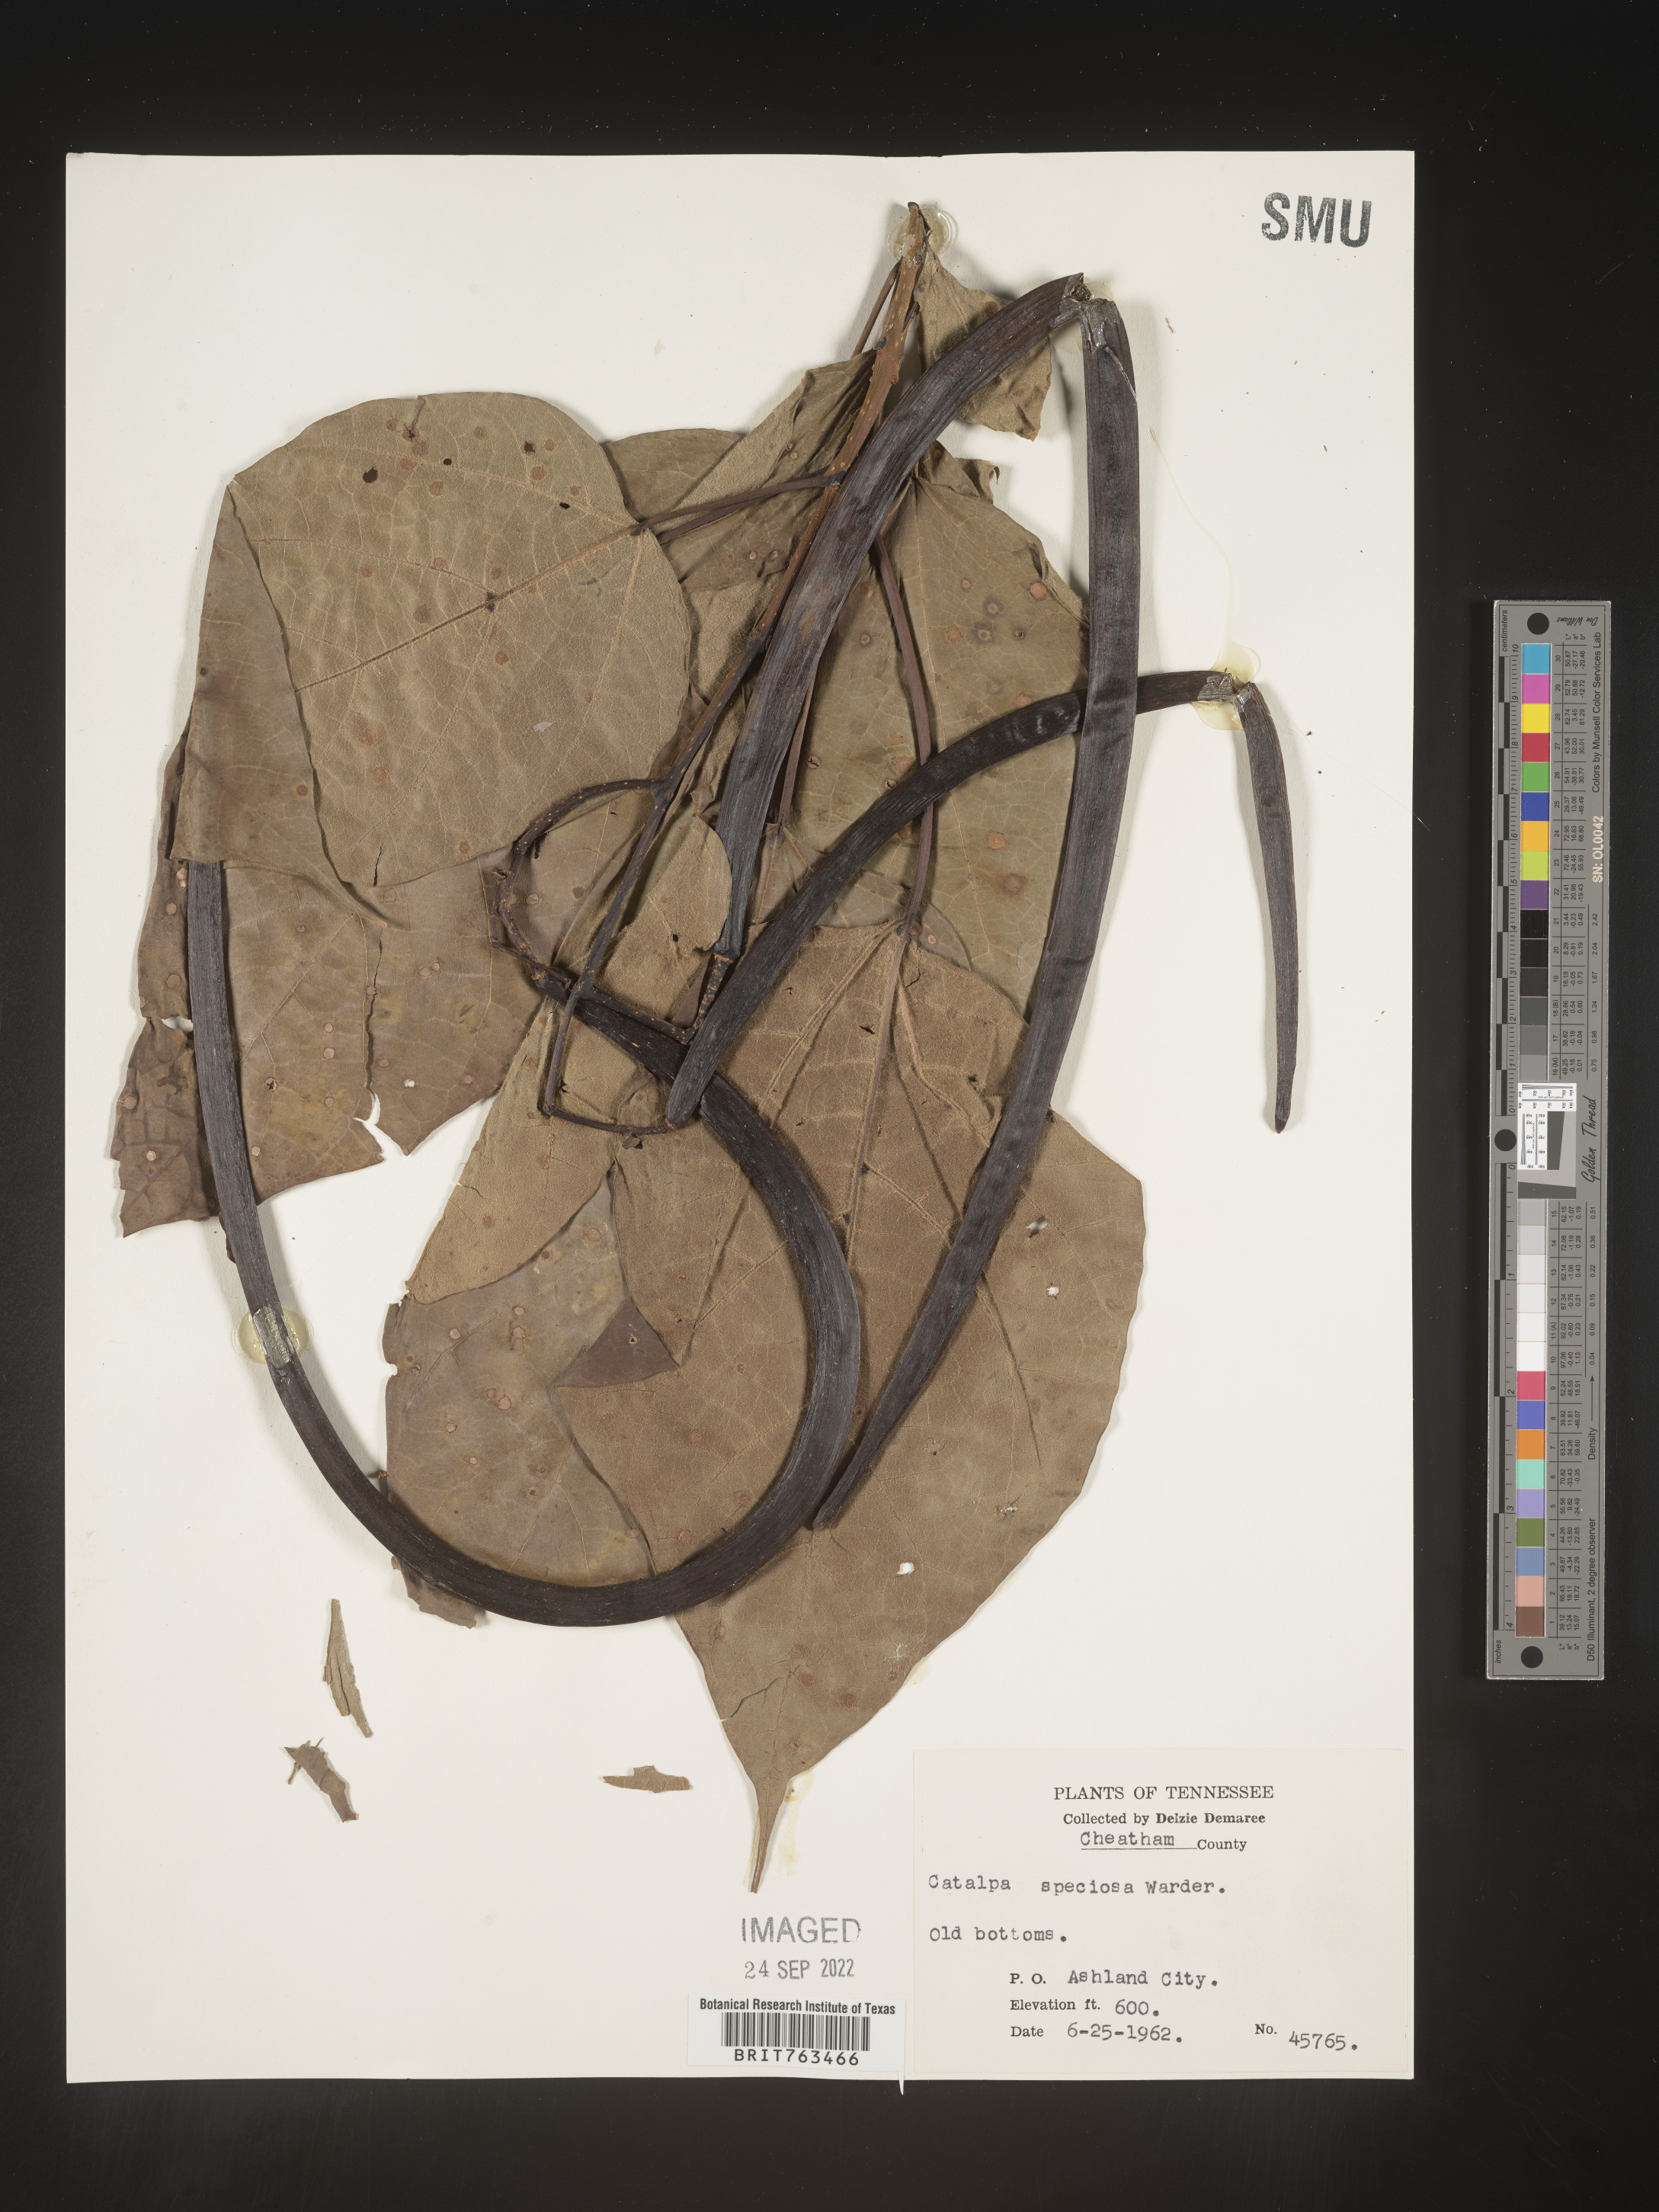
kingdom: Plantae
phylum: Tracheophyta
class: Magnoliopsida
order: Lamiales
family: Bignoniaceae
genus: Catalpa
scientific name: Catalpa speciosa
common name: Northern catalpa
